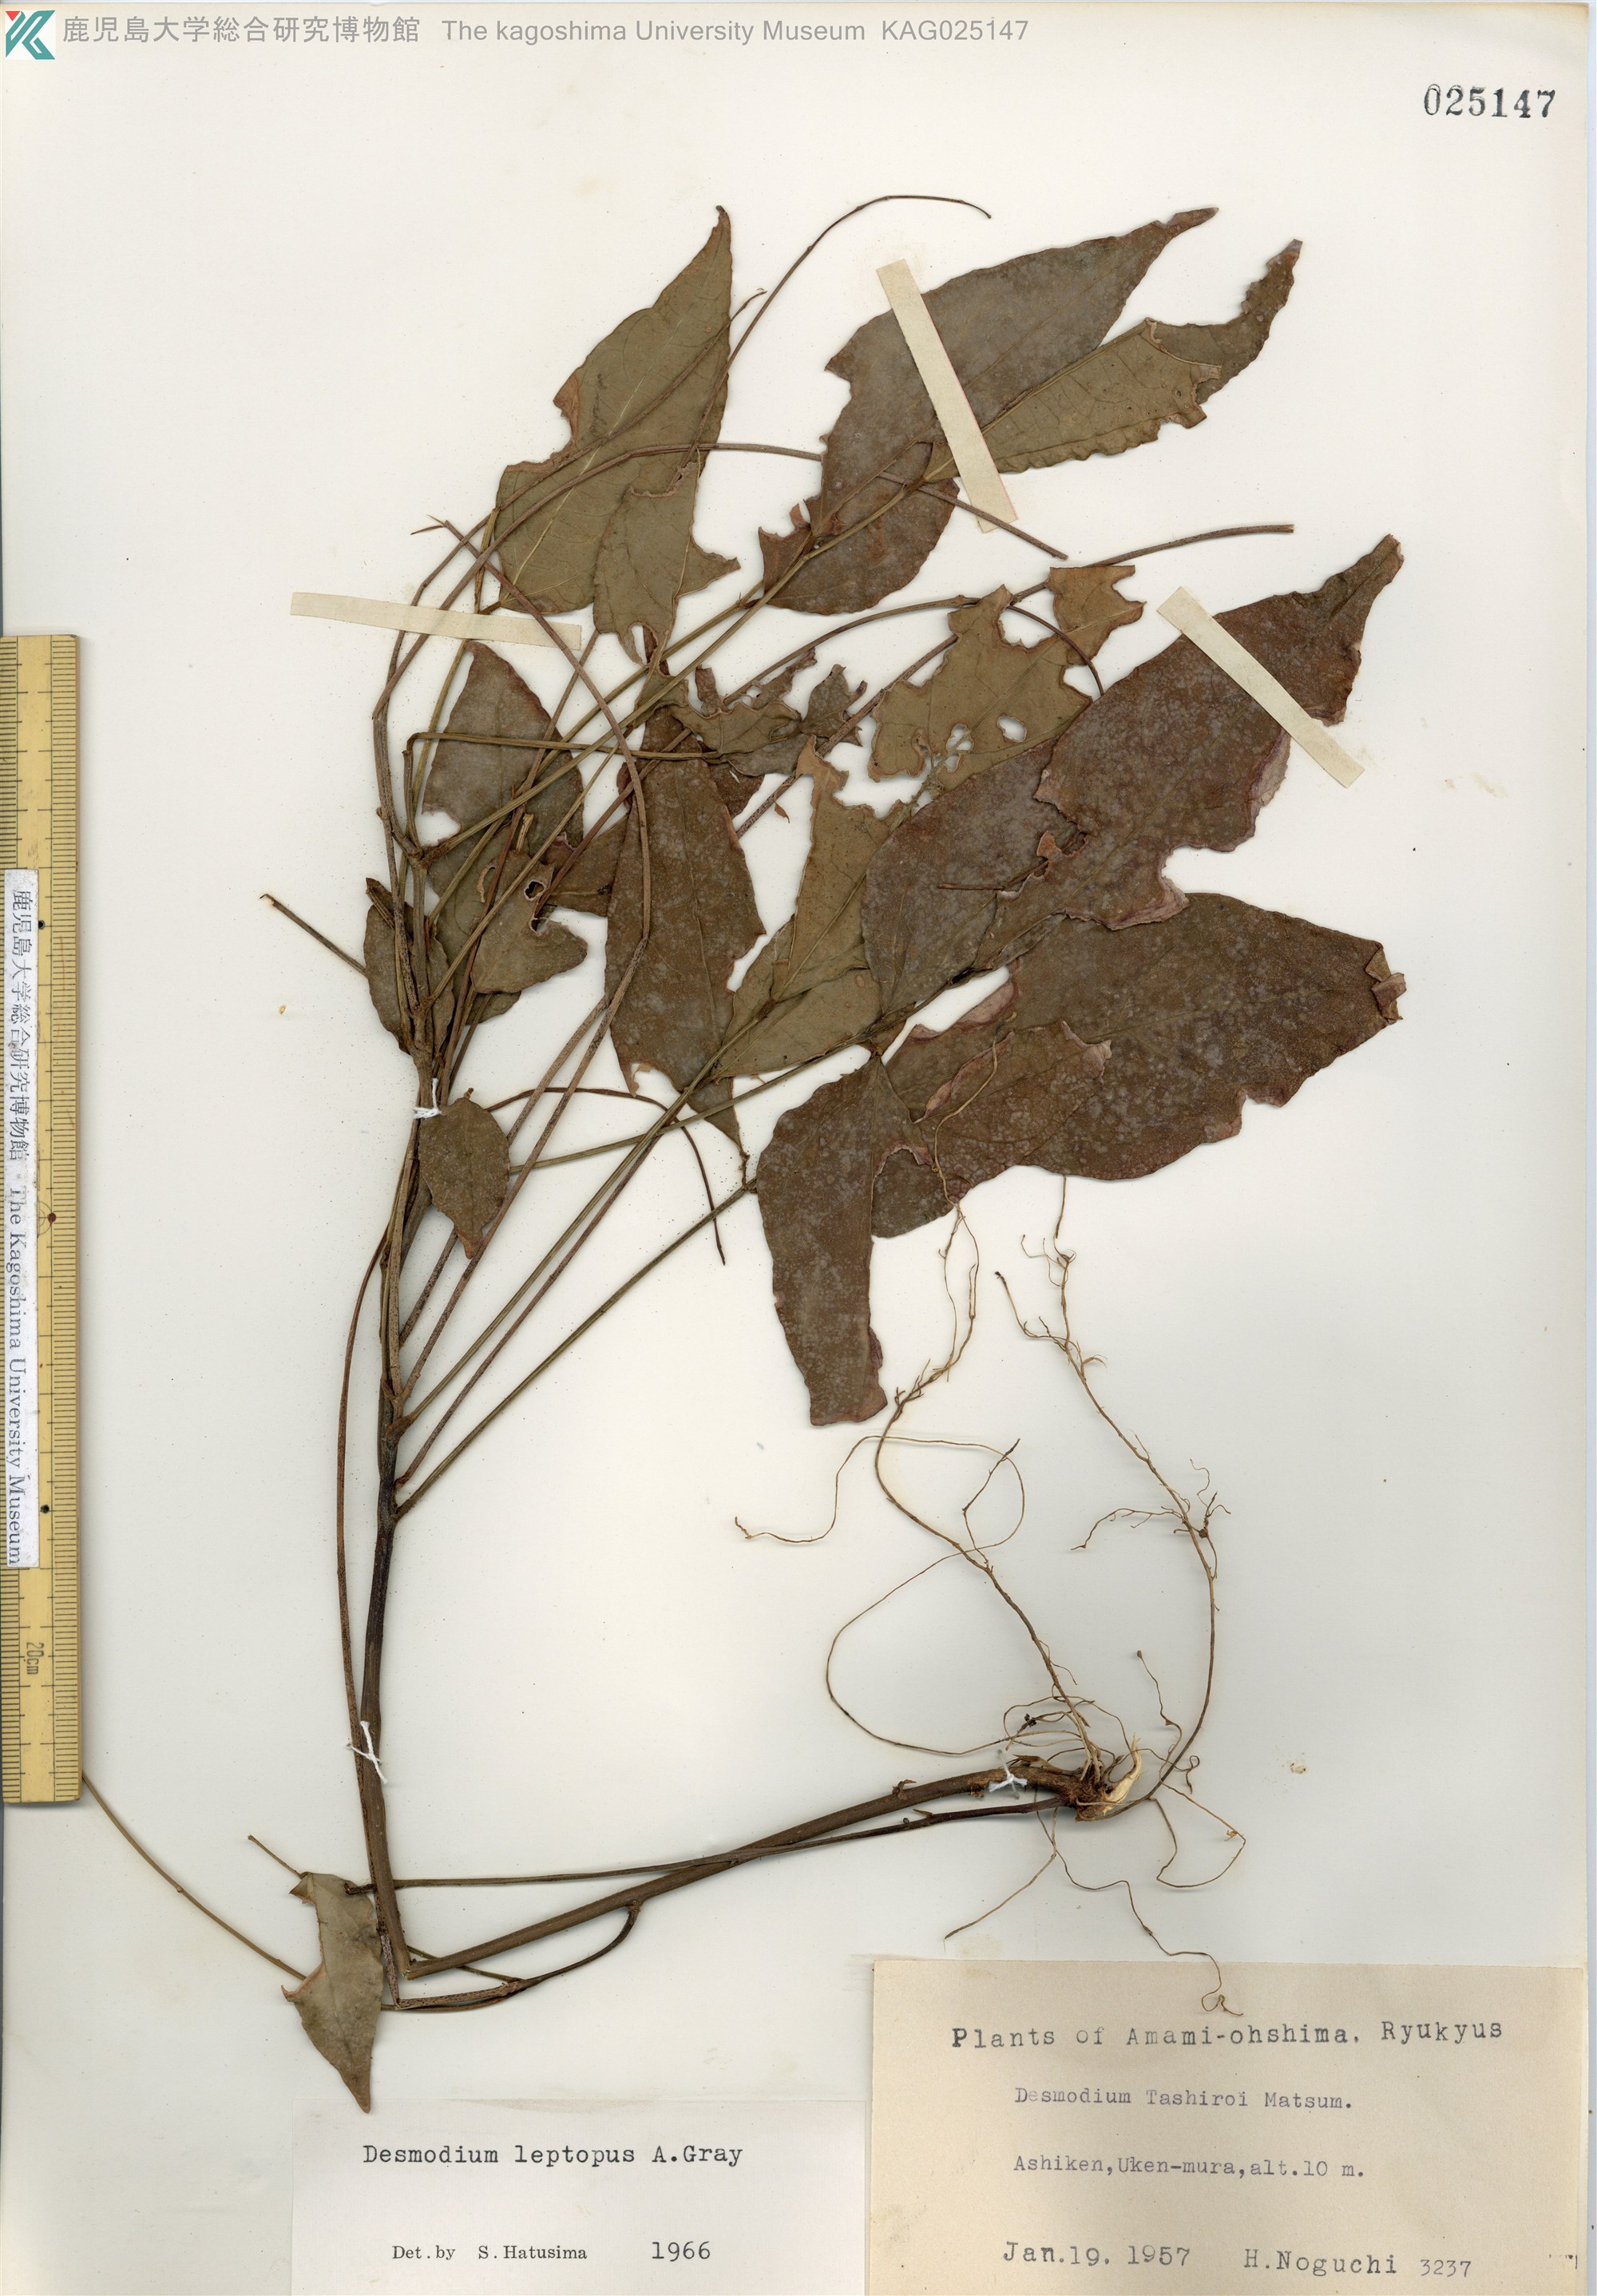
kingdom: Plantae
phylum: Tracheophyta
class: Magnoliopsida
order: Fabales
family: Fabaceae
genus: Hylodesmum
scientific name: Hylodesmum leptopus
